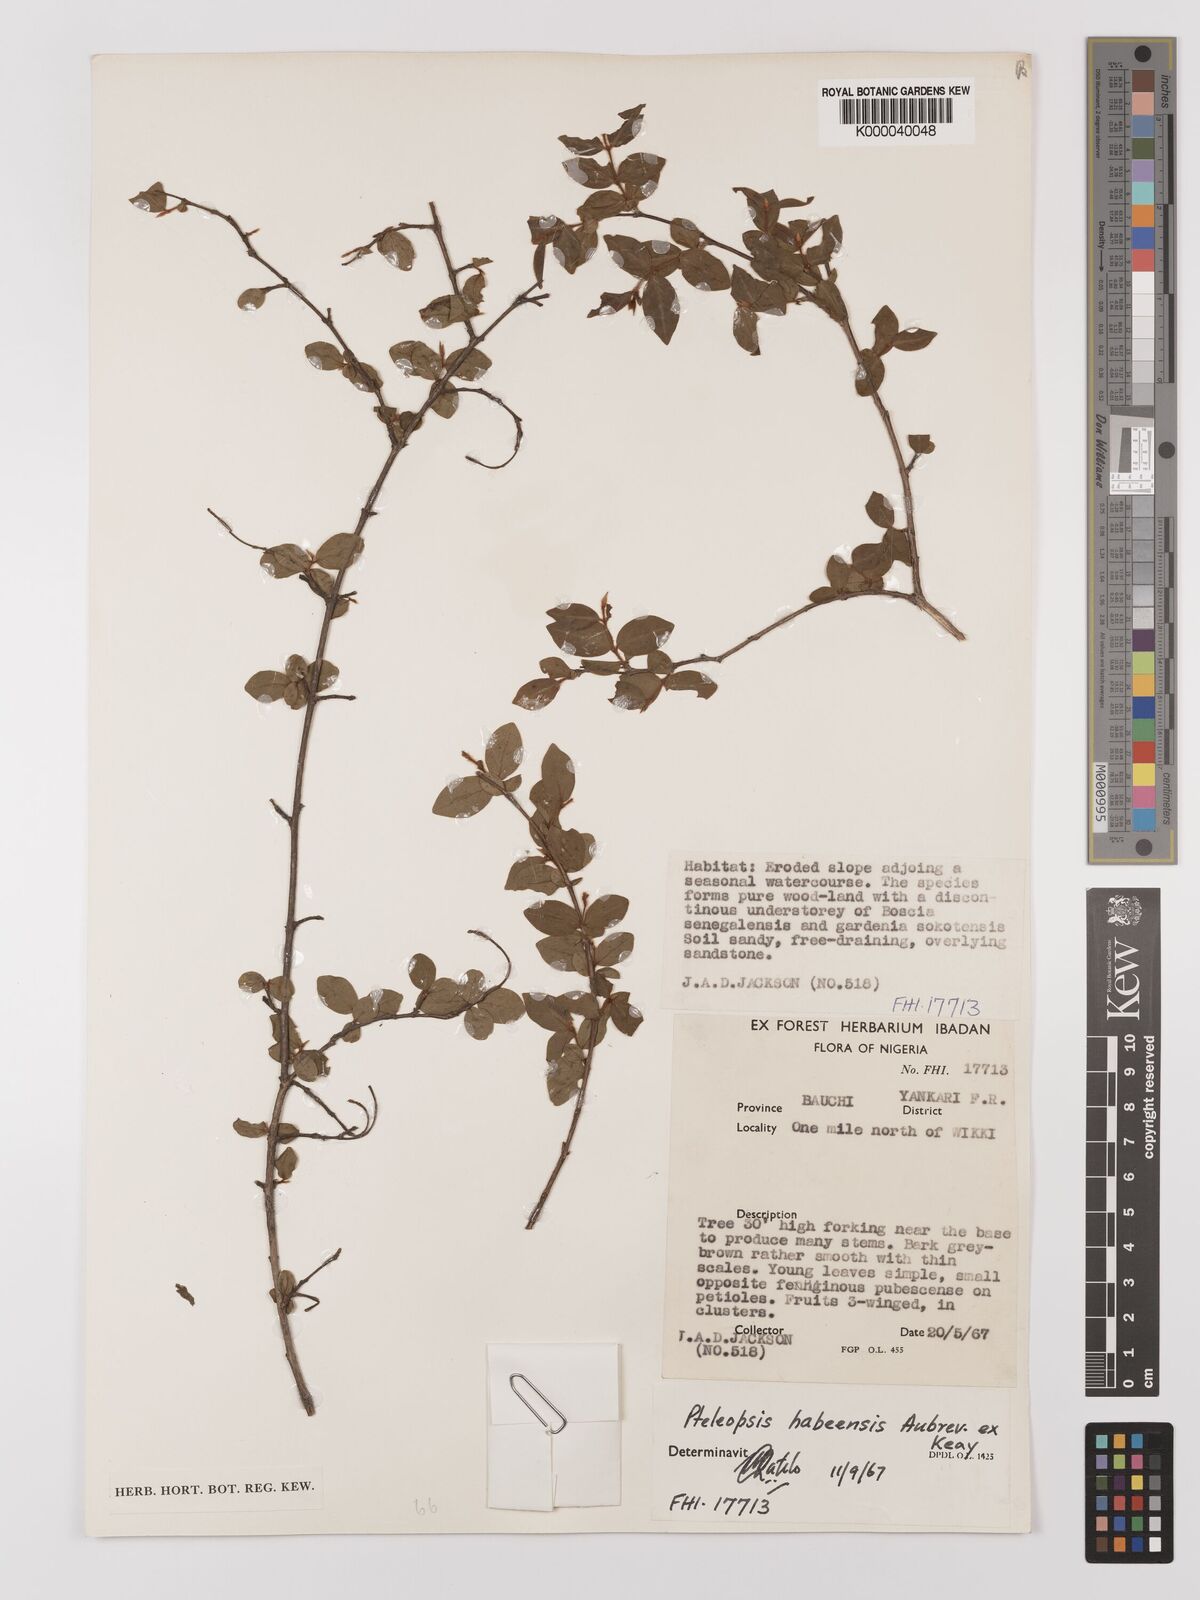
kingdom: Plantae
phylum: Tracheophyta
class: Magnoliopsida
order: Myrtales
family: Combretaceae
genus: Terminalia
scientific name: Terminalia
